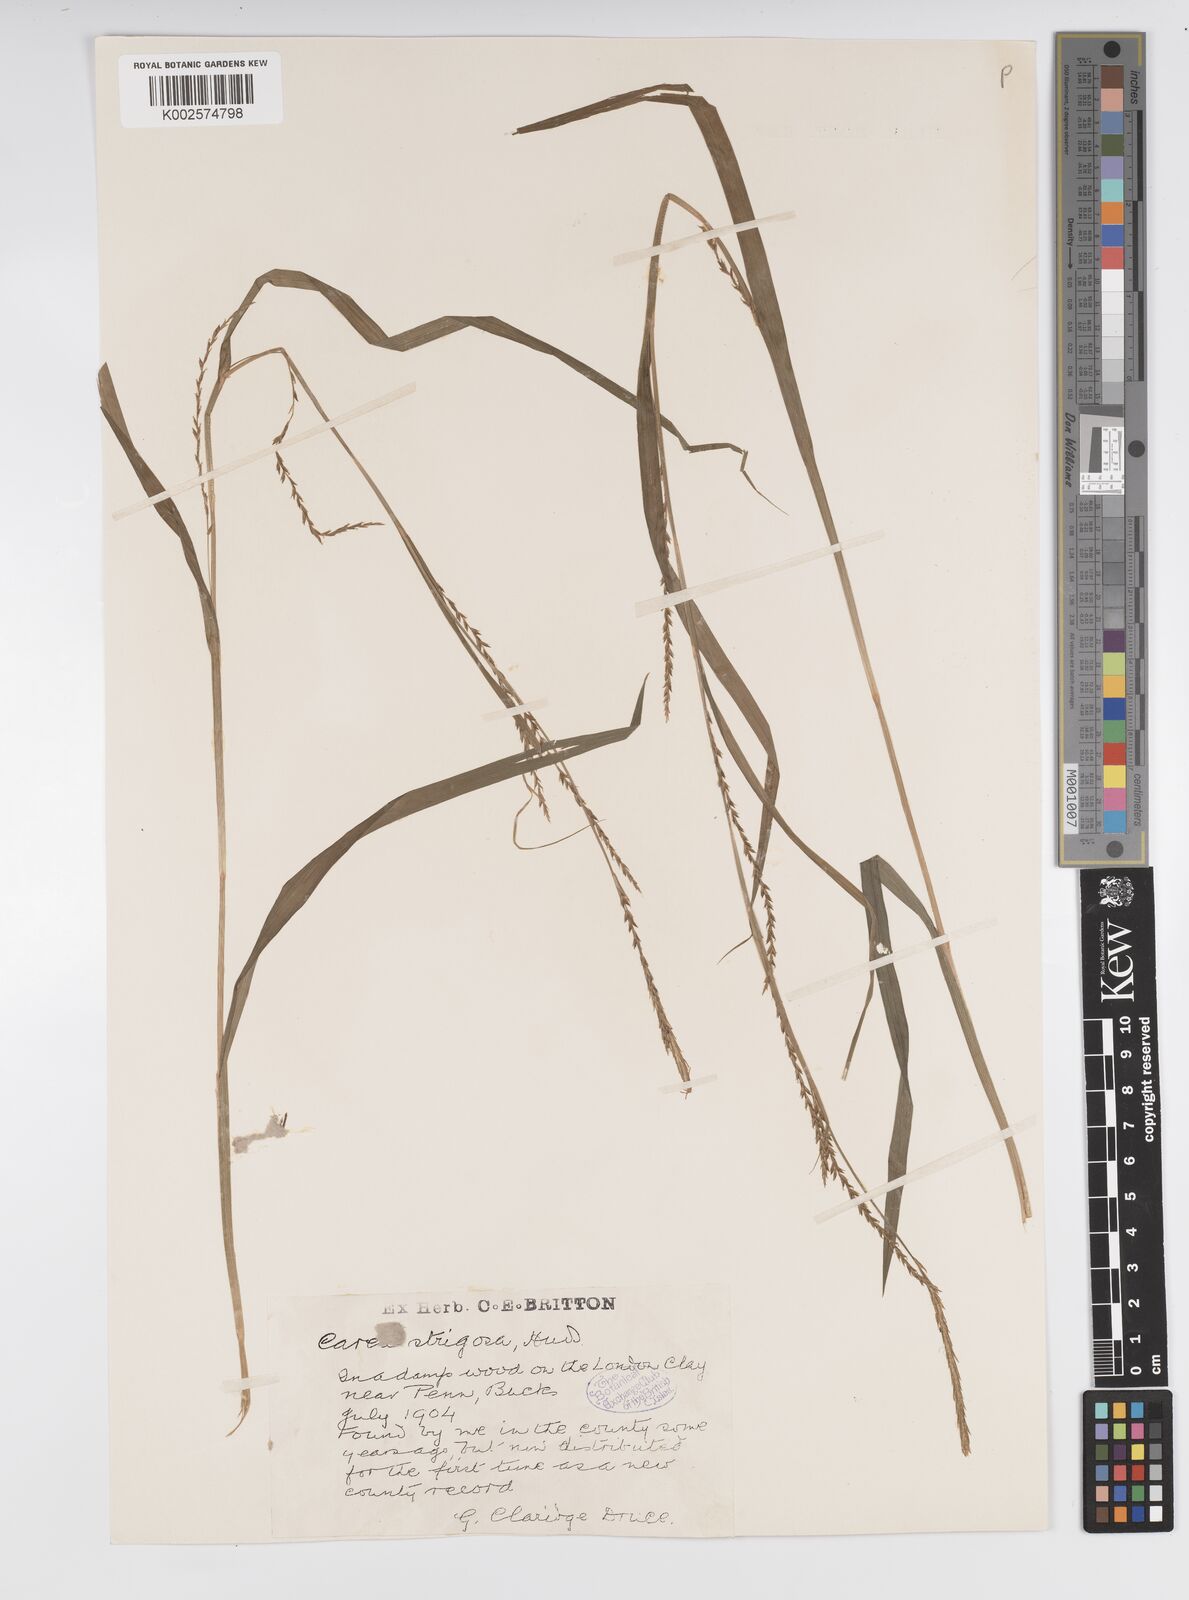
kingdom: Plantae
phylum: Tracheophyta
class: Liliopsida
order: Poales
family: Cyperaceae
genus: Carex
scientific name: Carex strigosa
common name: Thin-spiked wood-sedge
